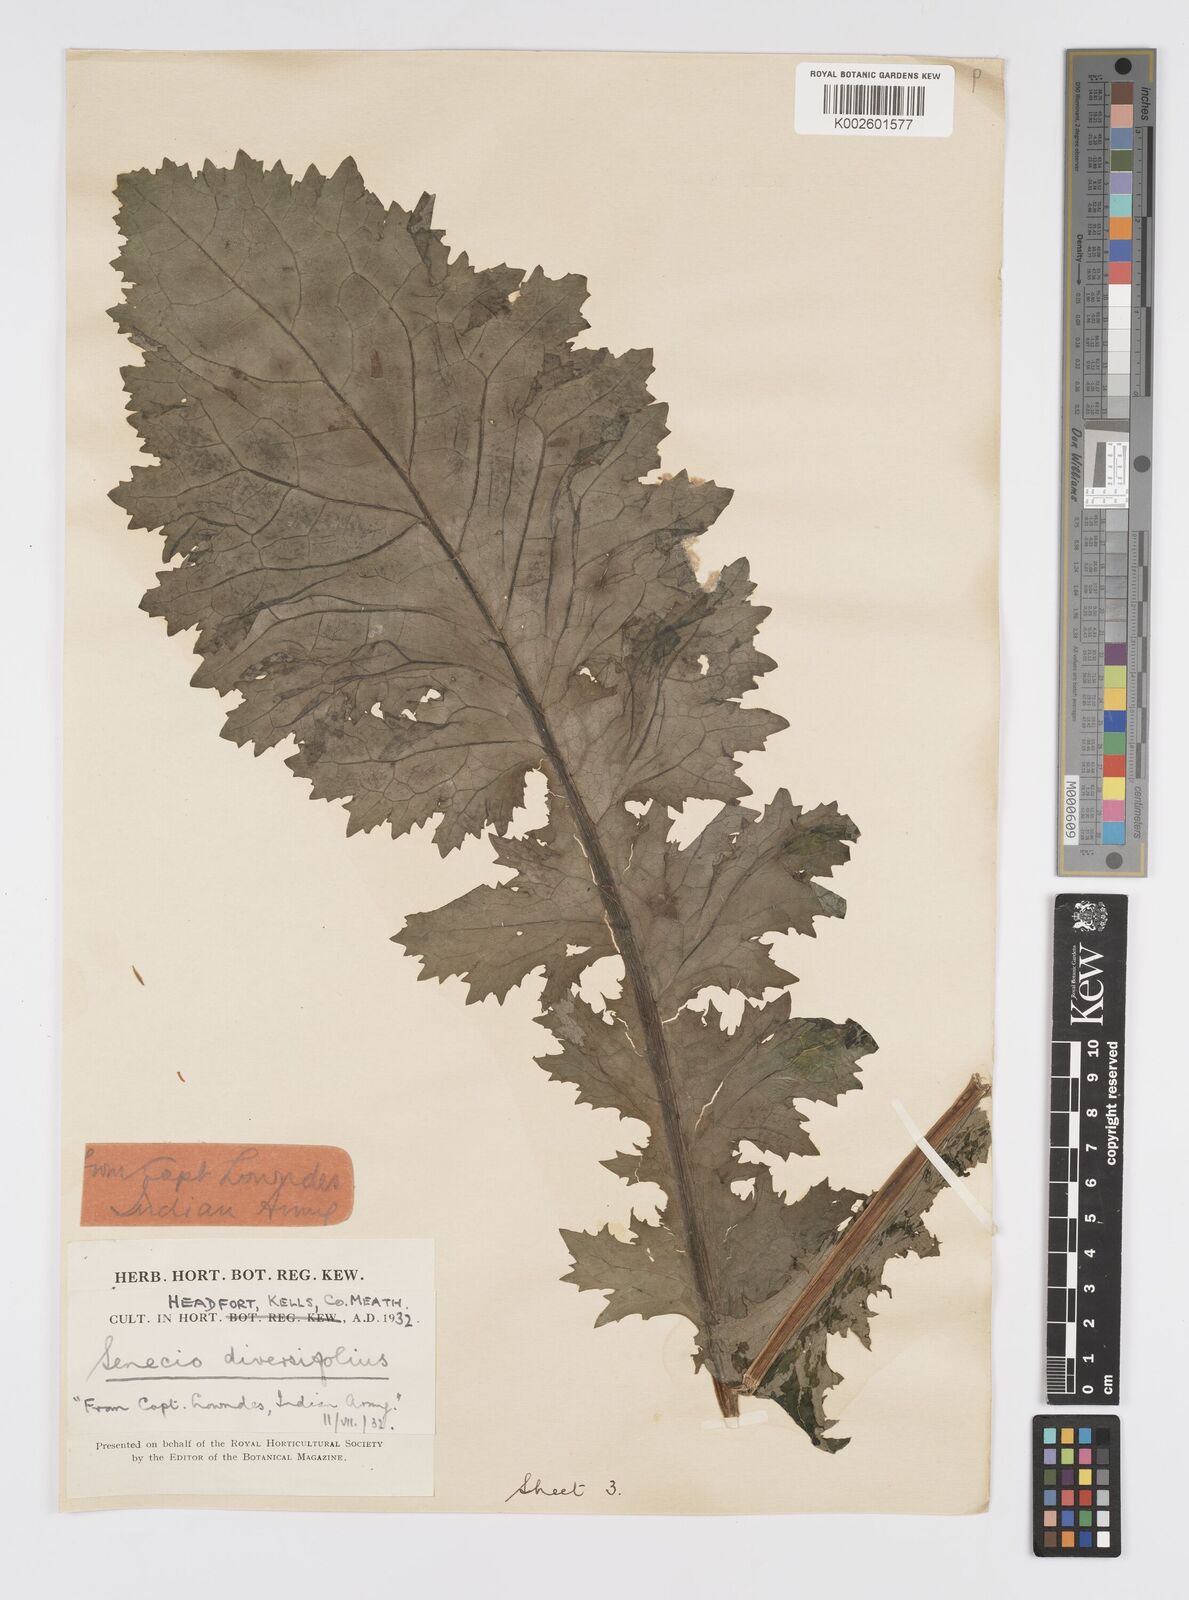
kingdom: Plantae
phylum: Tracheophyta
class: Magnoliopsida
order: Asterales
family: Asteraceae
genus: Jacobaea
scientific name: Jacobaea raphanifolia
